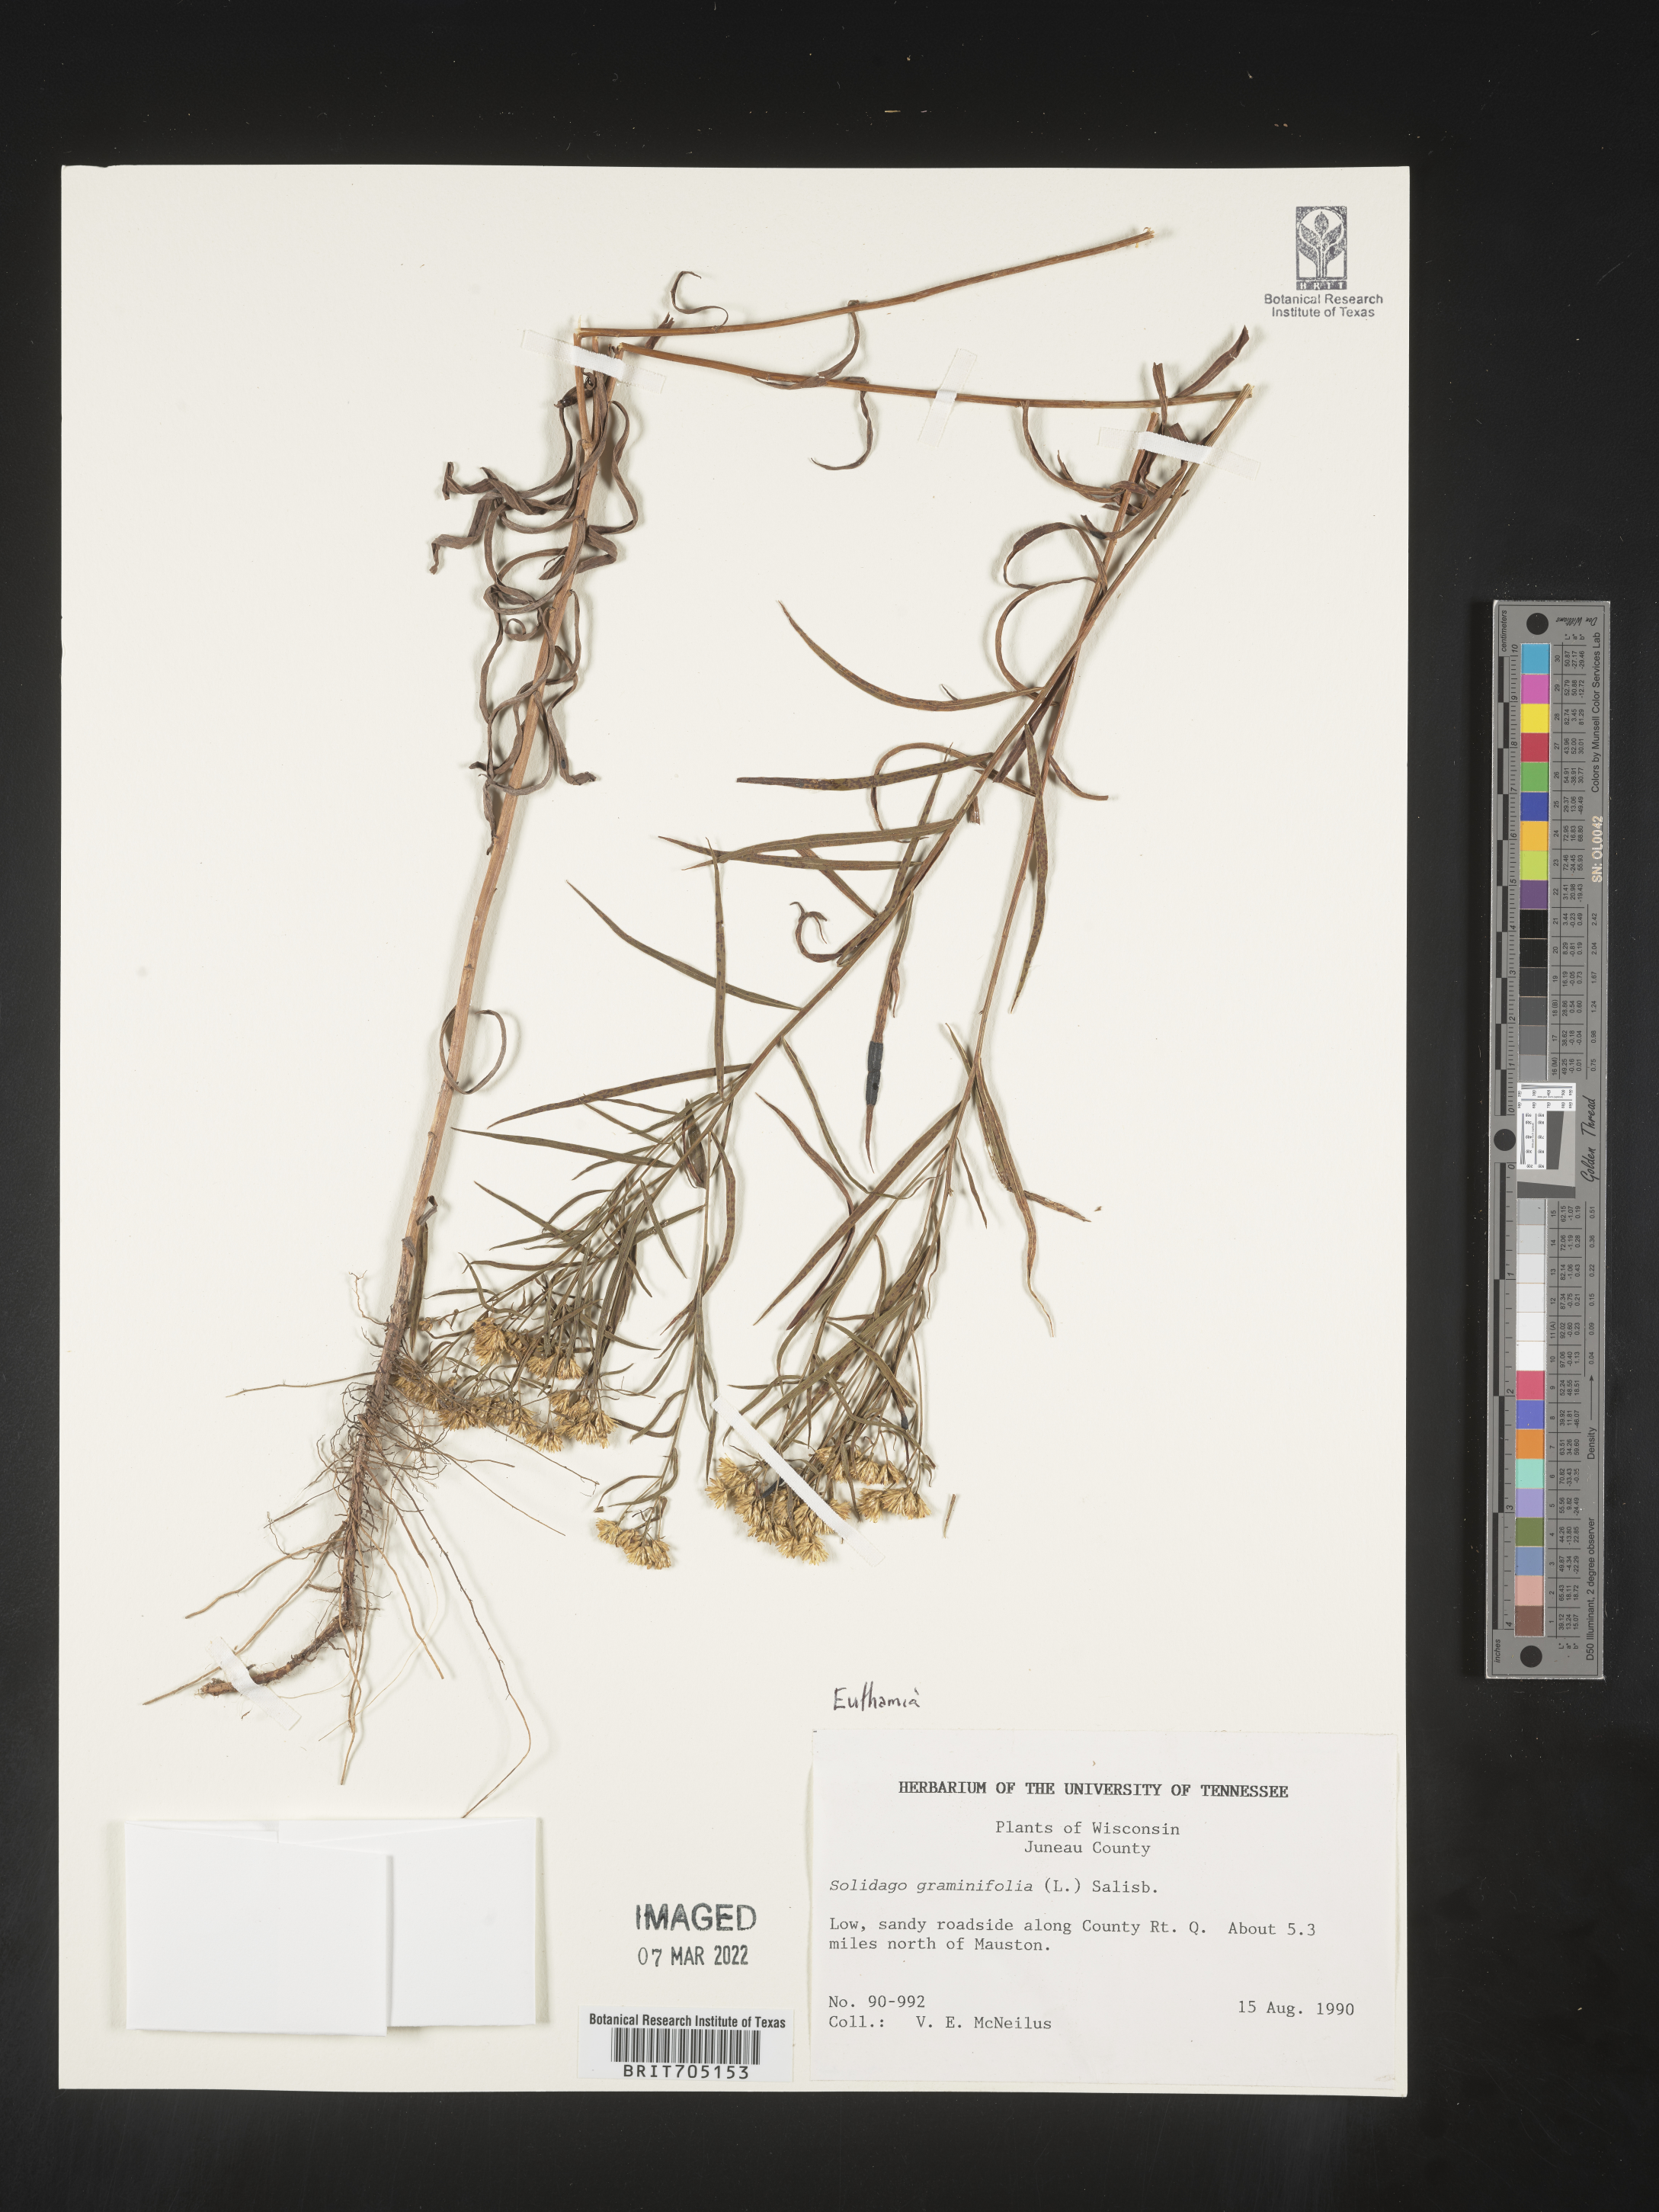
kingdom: Plantae
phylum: Tracheophyta
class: Magnoliopsida
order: Asterales
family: Asteraceae
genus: Euthamia
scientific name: Euthamia graminifolia
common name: Common goldentop
